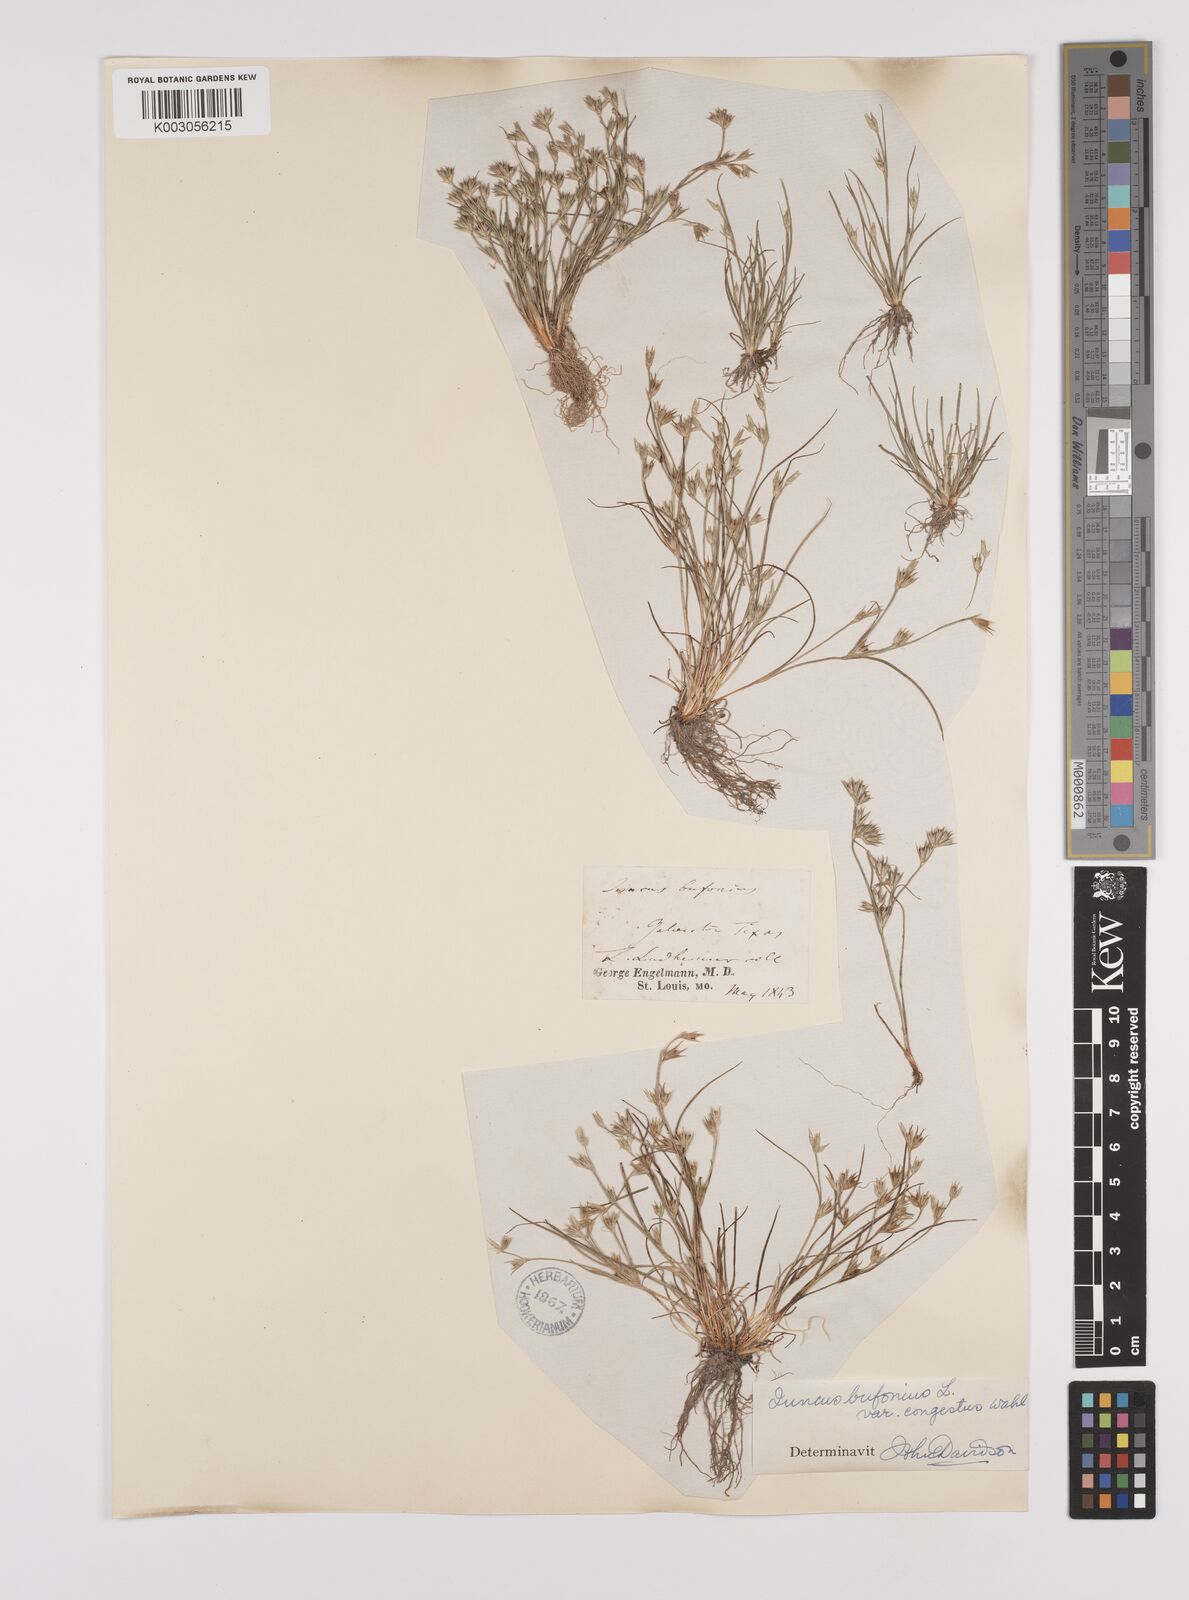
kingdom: Plantae
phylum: Tracheophyta
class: Liliopsida
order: Poales
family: Juncaceae
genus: Juncus
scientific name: Juncus bufonius
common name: Toad rush
